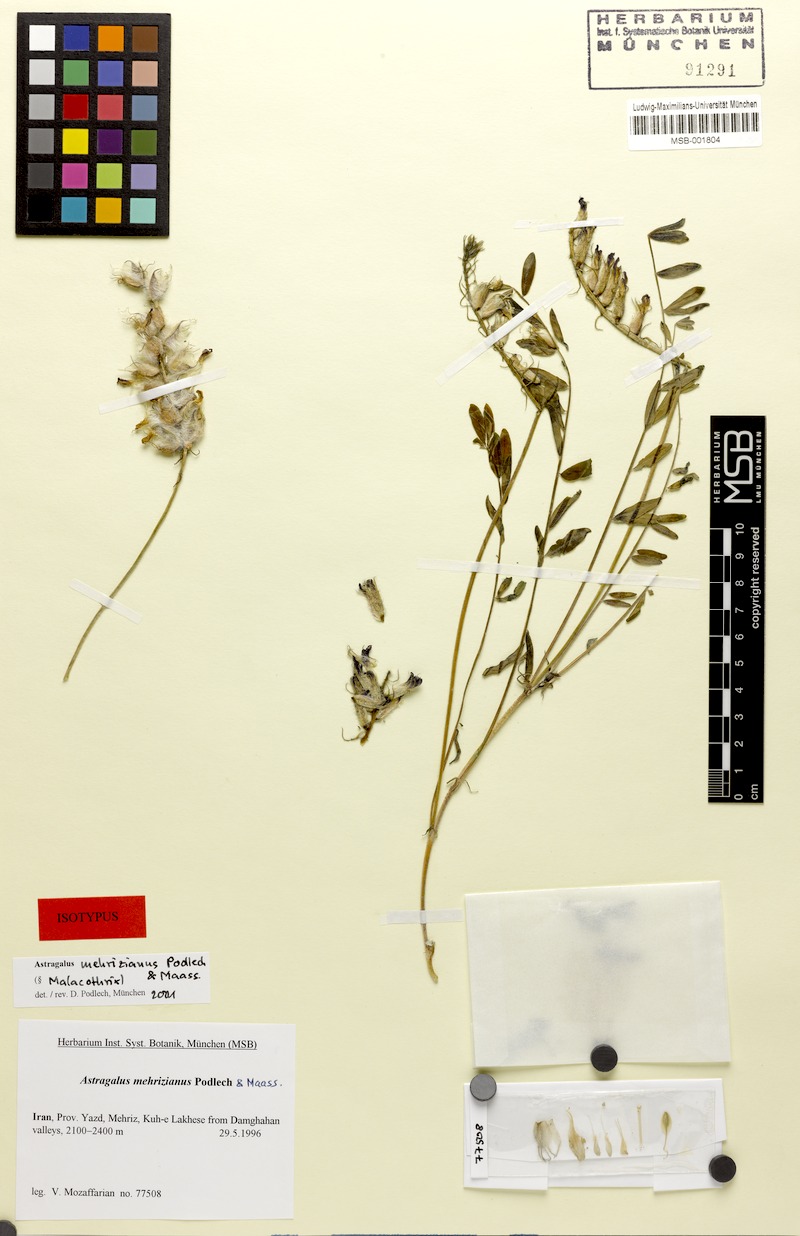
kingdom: Plantae
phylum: Tracheophyta
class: Magnoliopsida
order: Fabales
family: Fabaceae
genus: Astragalus
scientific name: Astragalus mehrizianus
